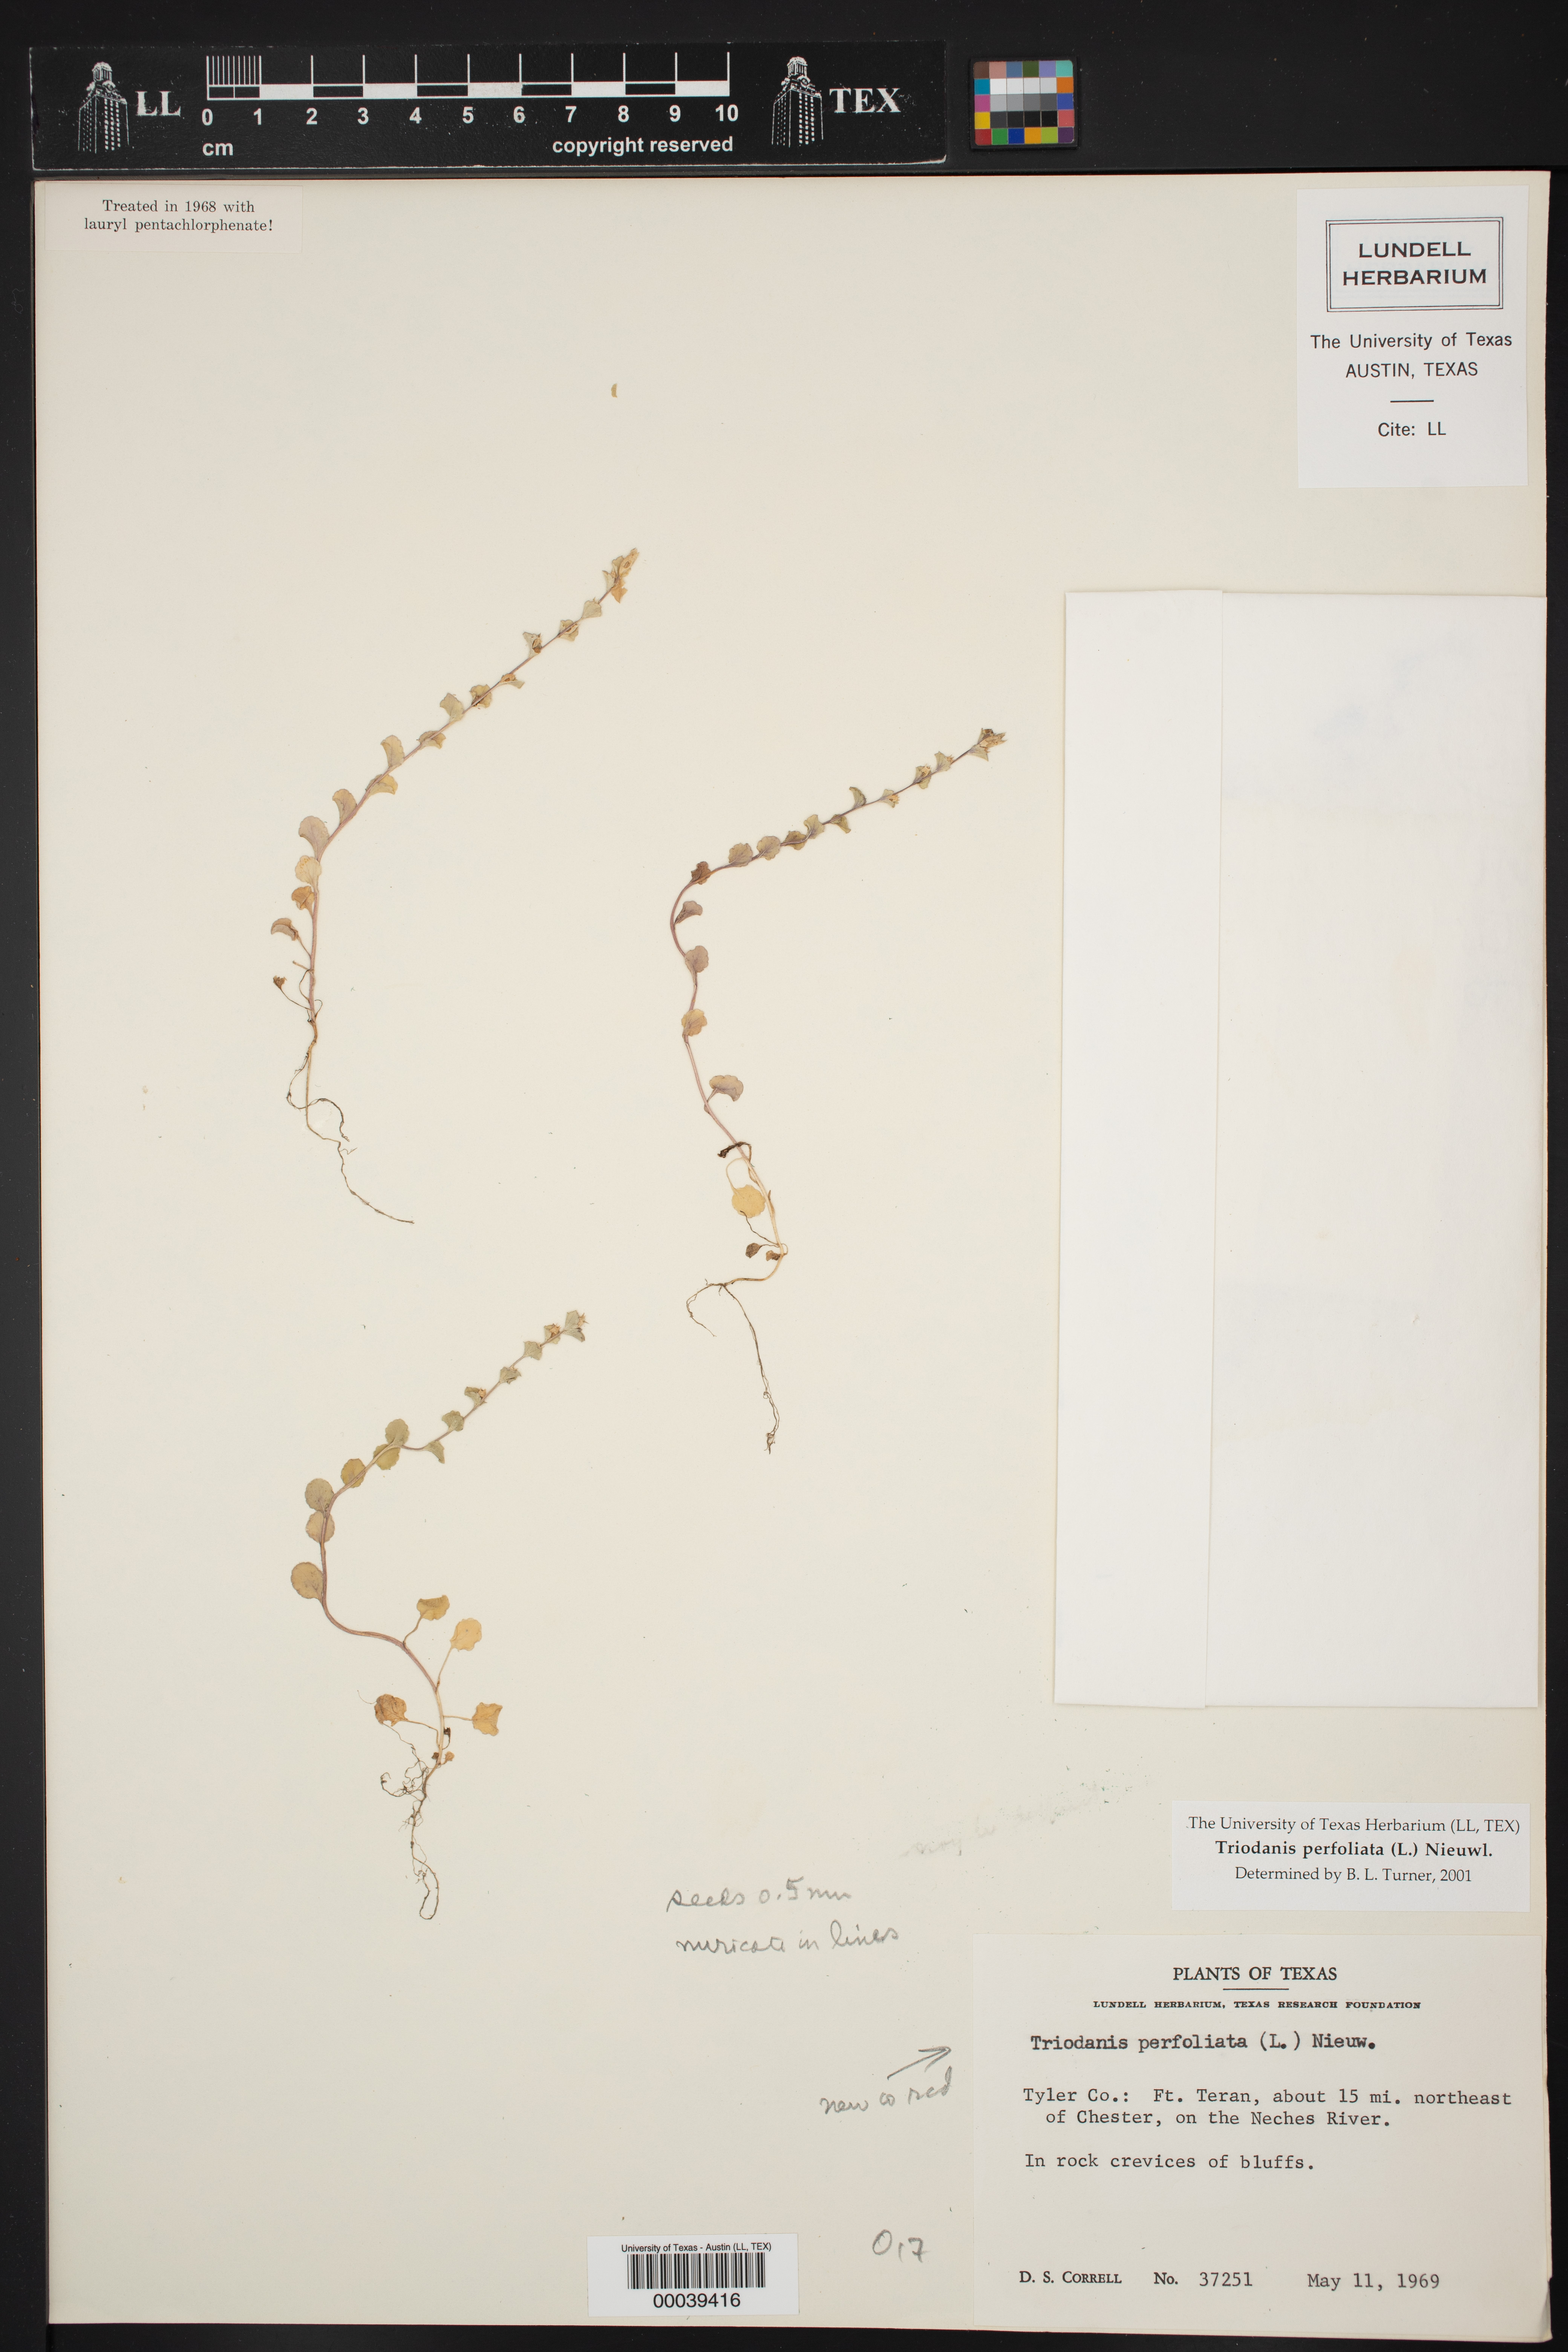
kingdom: Plantae
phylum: Tracheophyta
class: Magnoliopsida
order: Asterales
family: Campanulaceae
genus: Triodanis
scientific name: Triodanis perfoliata
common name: Clasping venus' looking-glass
